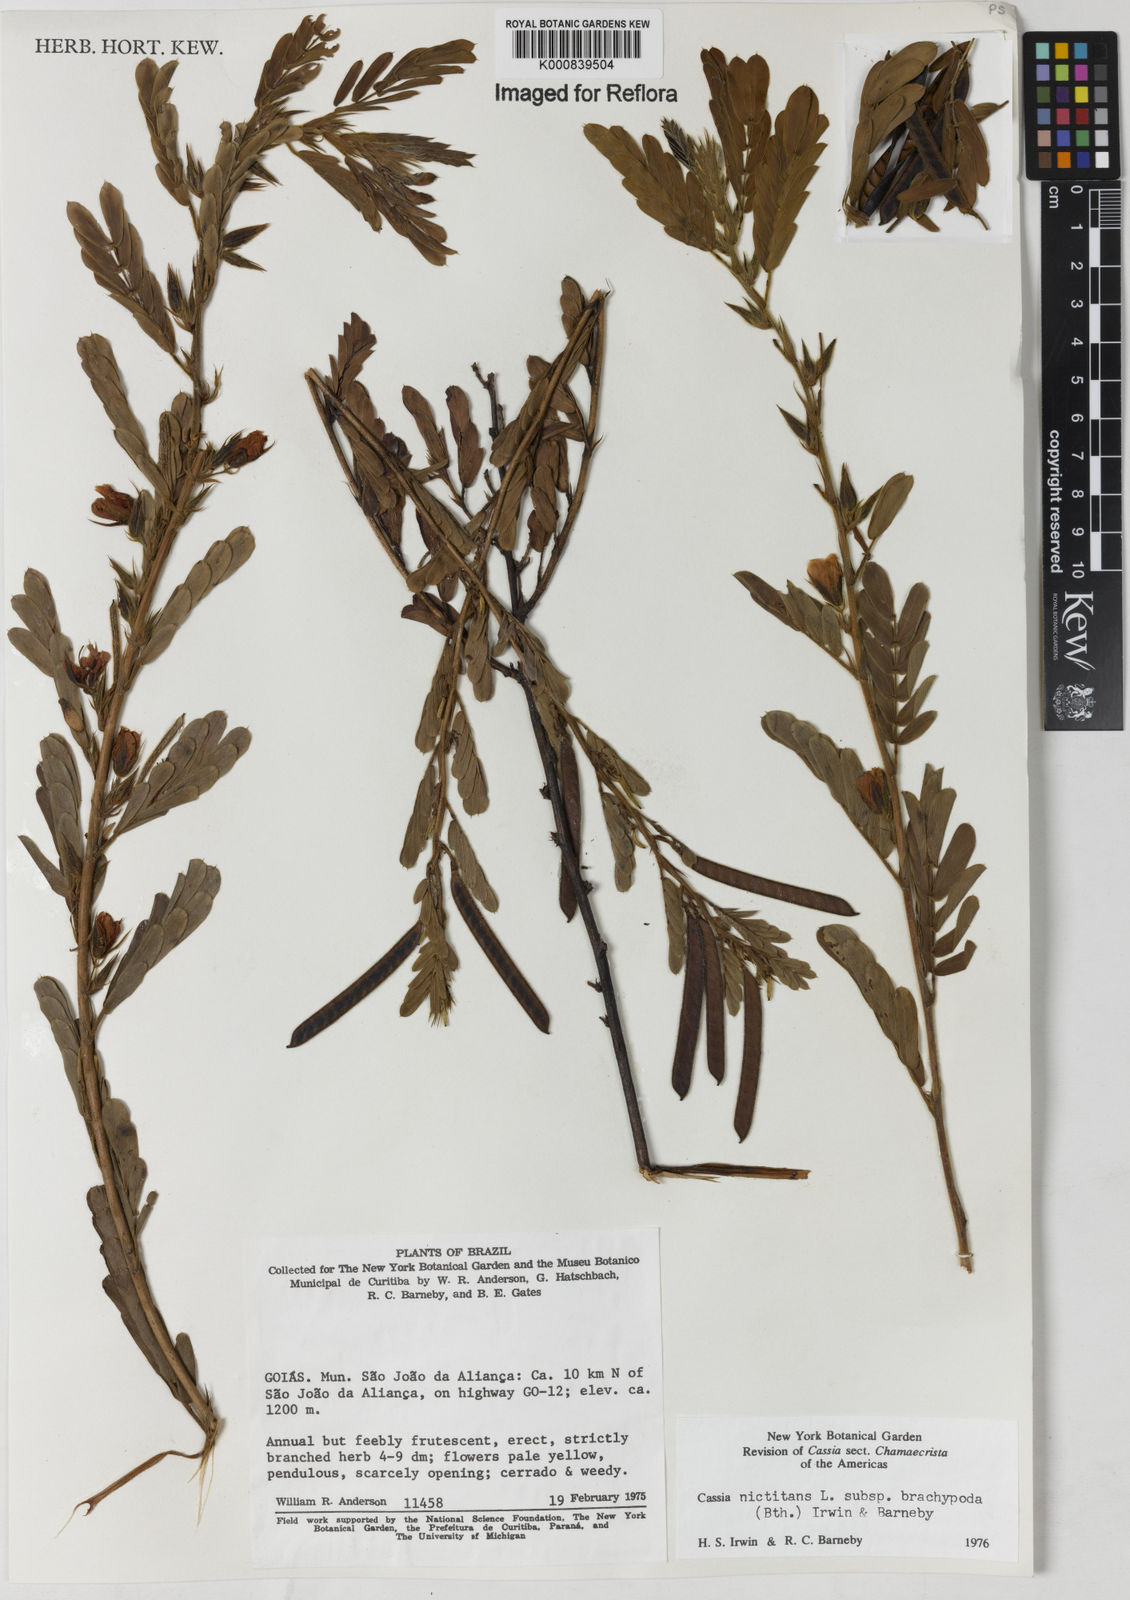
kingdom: Plantae
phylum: Tracheophyta
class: Magnoliopsida
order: Fabales
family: Fabaceae
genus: Chamaecrista
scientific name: Chamaecrista nictitans
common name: Sensitive cassia
